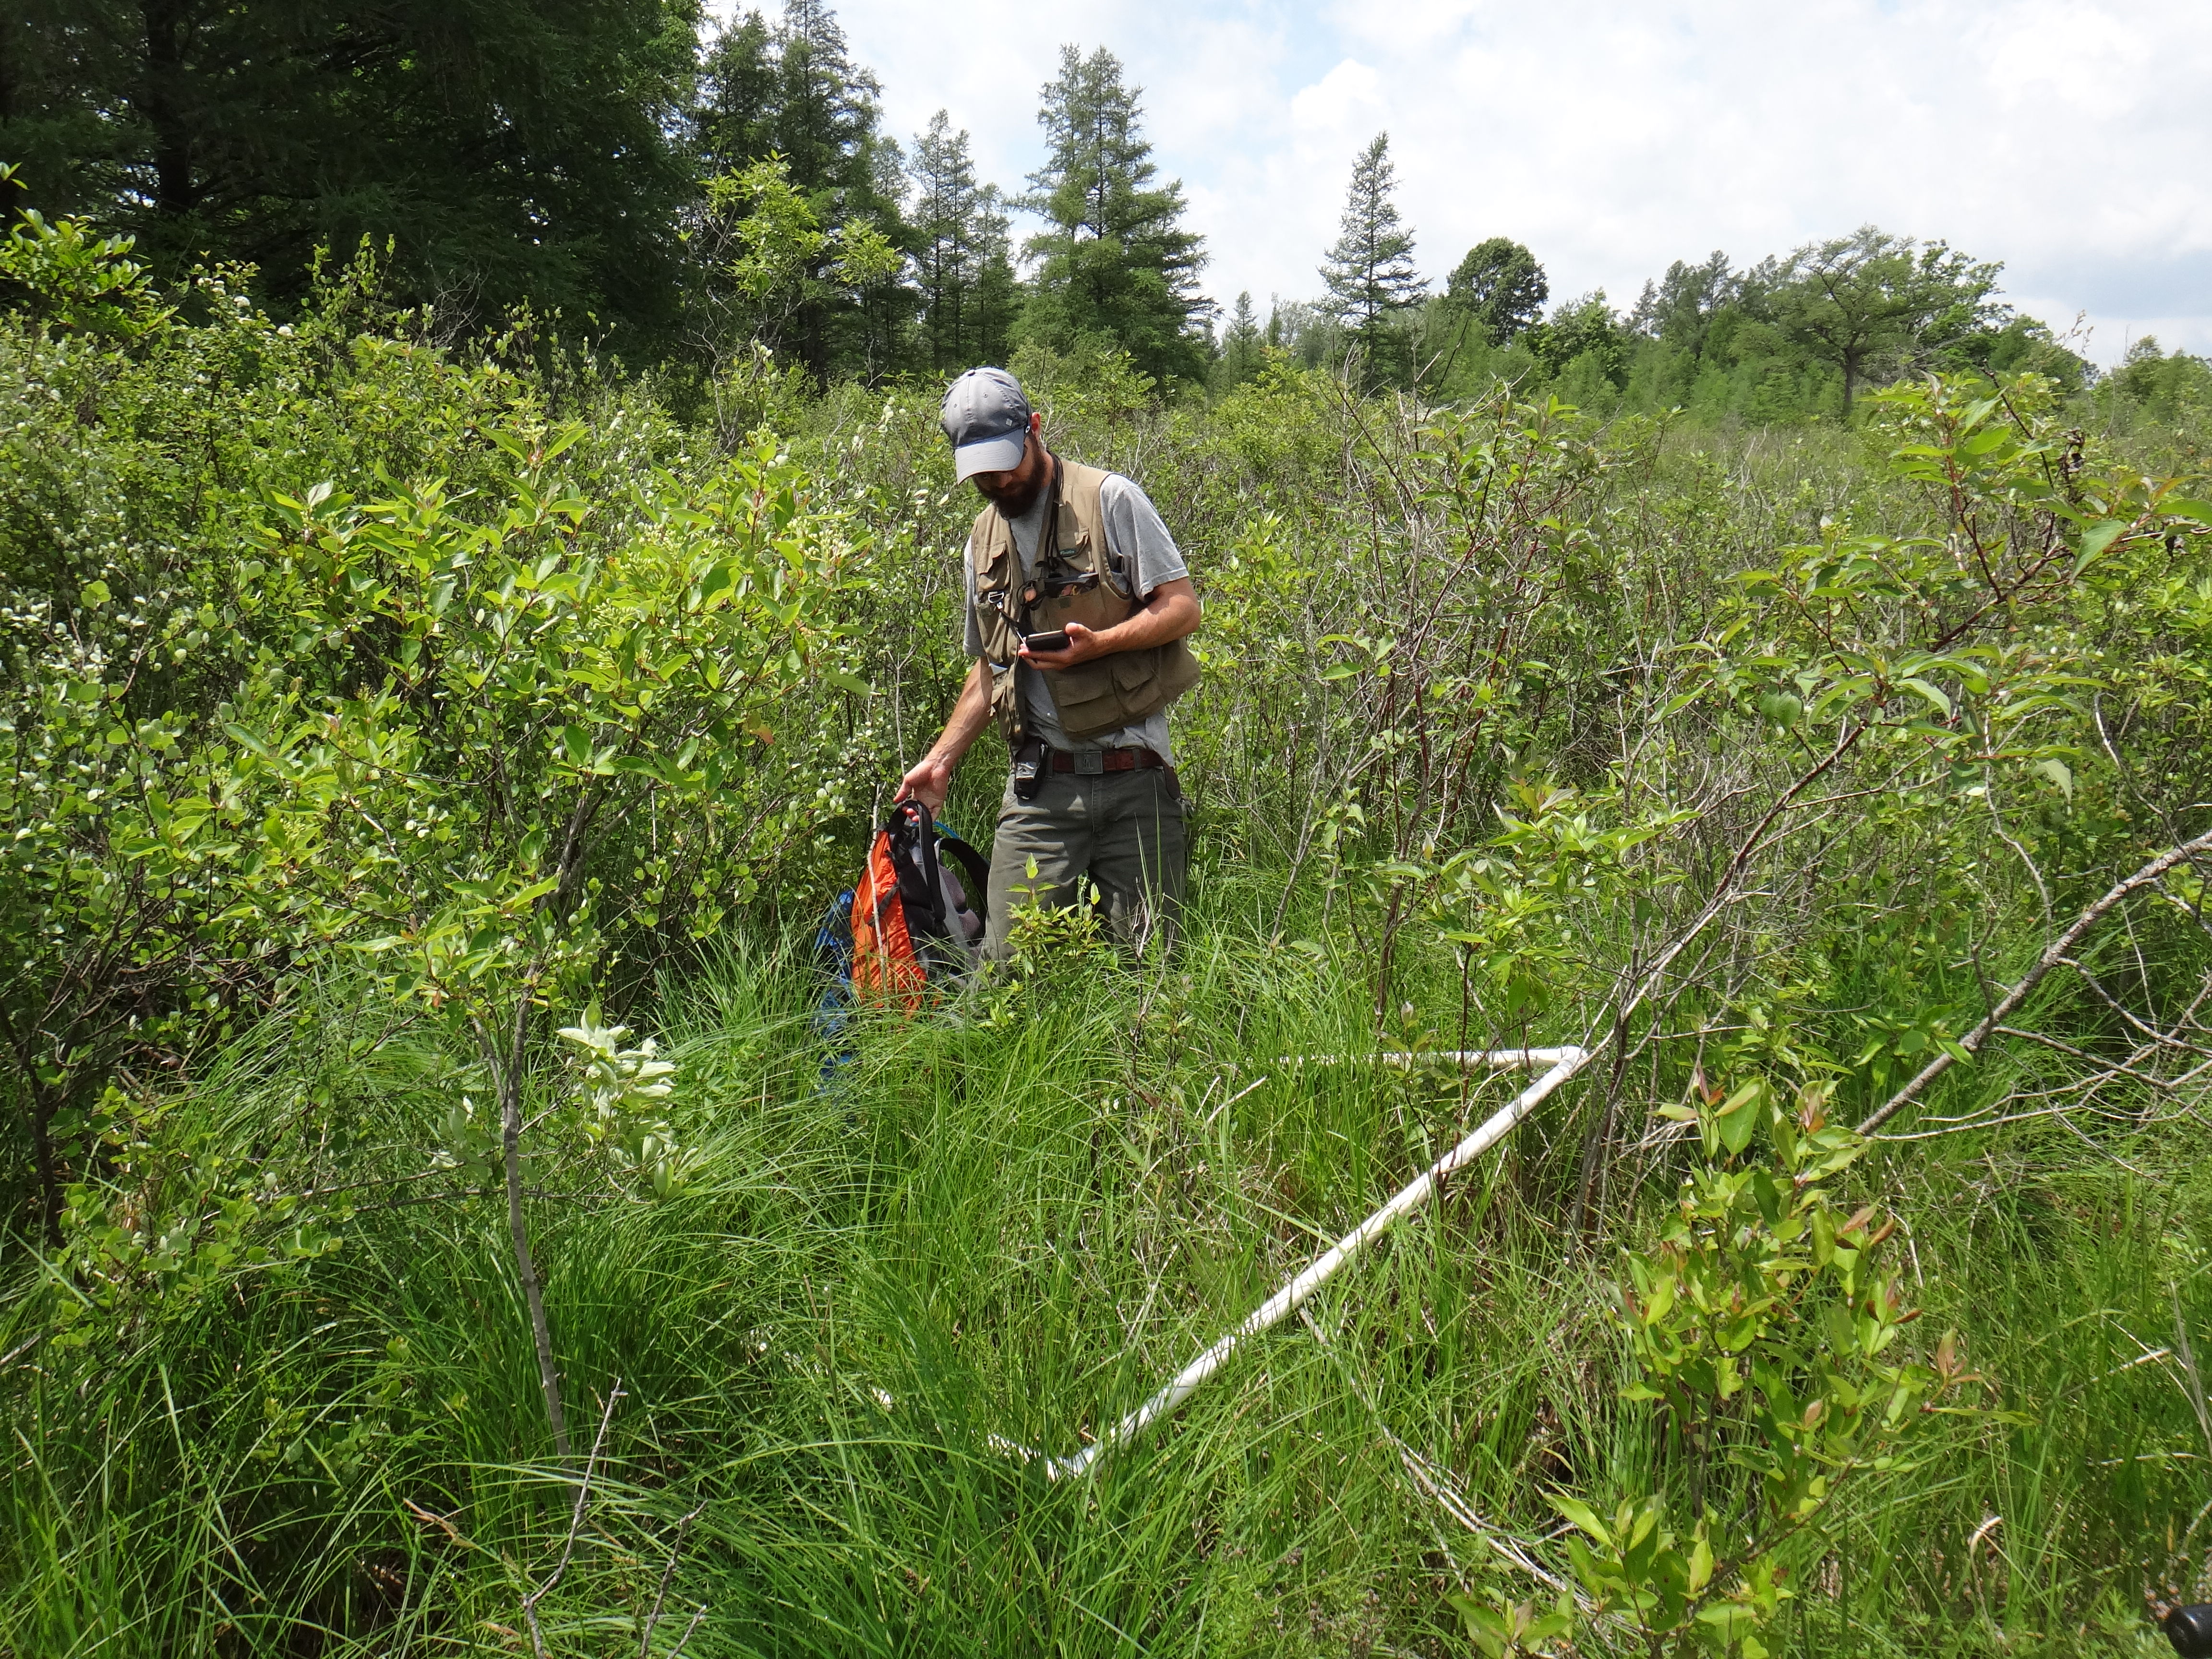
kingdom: Plantae
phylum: Tracheophyta
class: Magnoliopsida
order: Gentianales
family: Rubiaceae
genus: Galium
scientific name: Galium boreale
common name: Northern bedstraw
